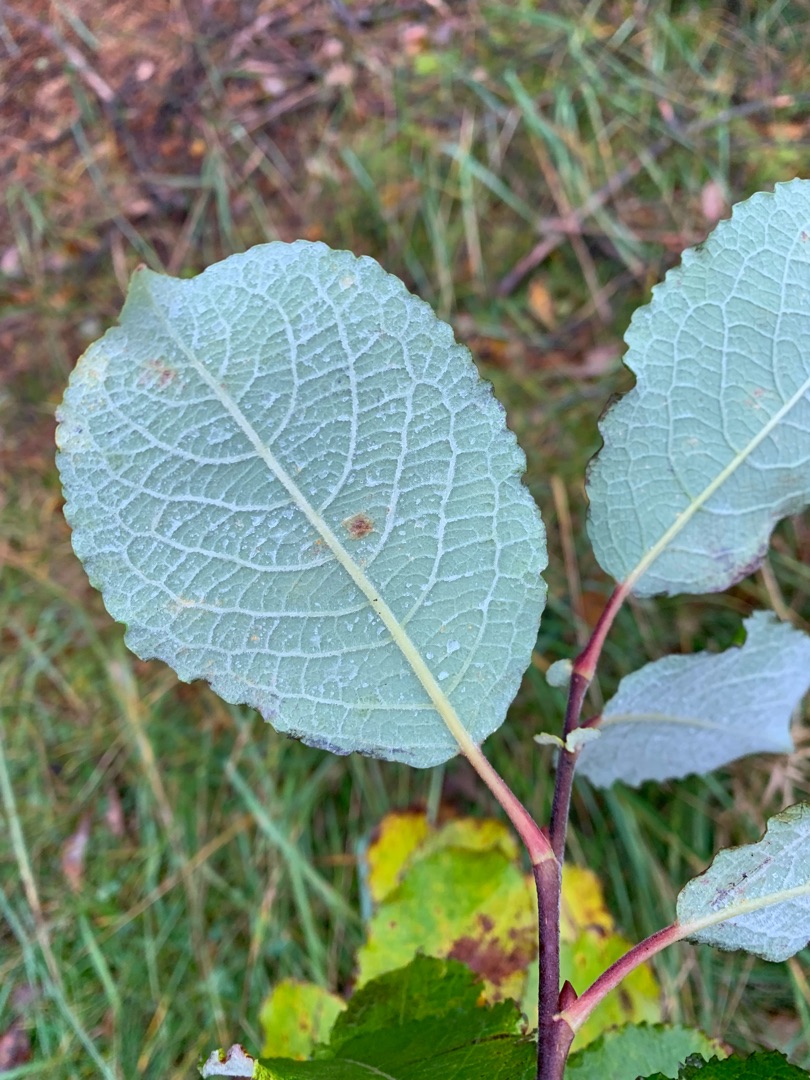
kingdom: Plantae
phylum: Tracheophyta
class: Magnoliopsida
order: Malpighiales
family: Salicaceae
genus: Salix
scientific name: Salix caprea
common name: Selje-pil
